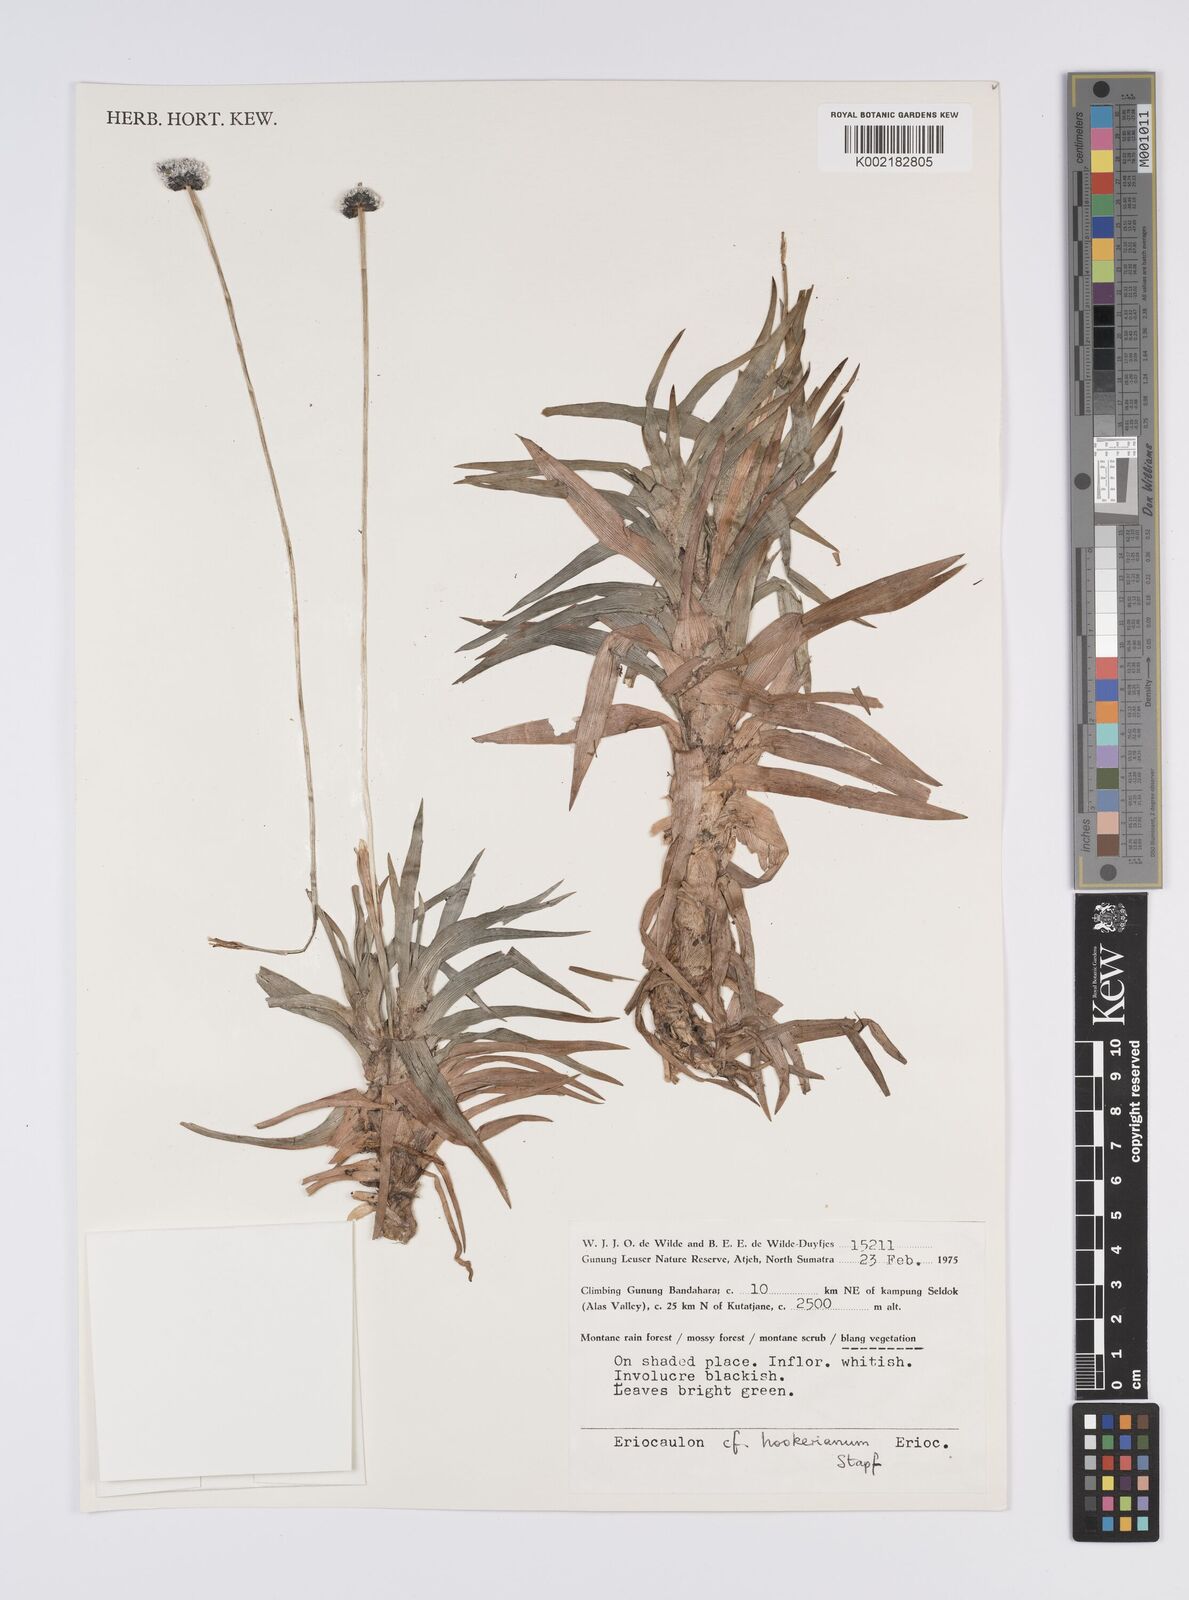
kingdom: Plantae
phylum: Tracheophyta
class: Liliopsida
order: Poales
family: Eriocaulaceae
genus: Eriocaulon
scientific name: Eriocaulon hookerianum
